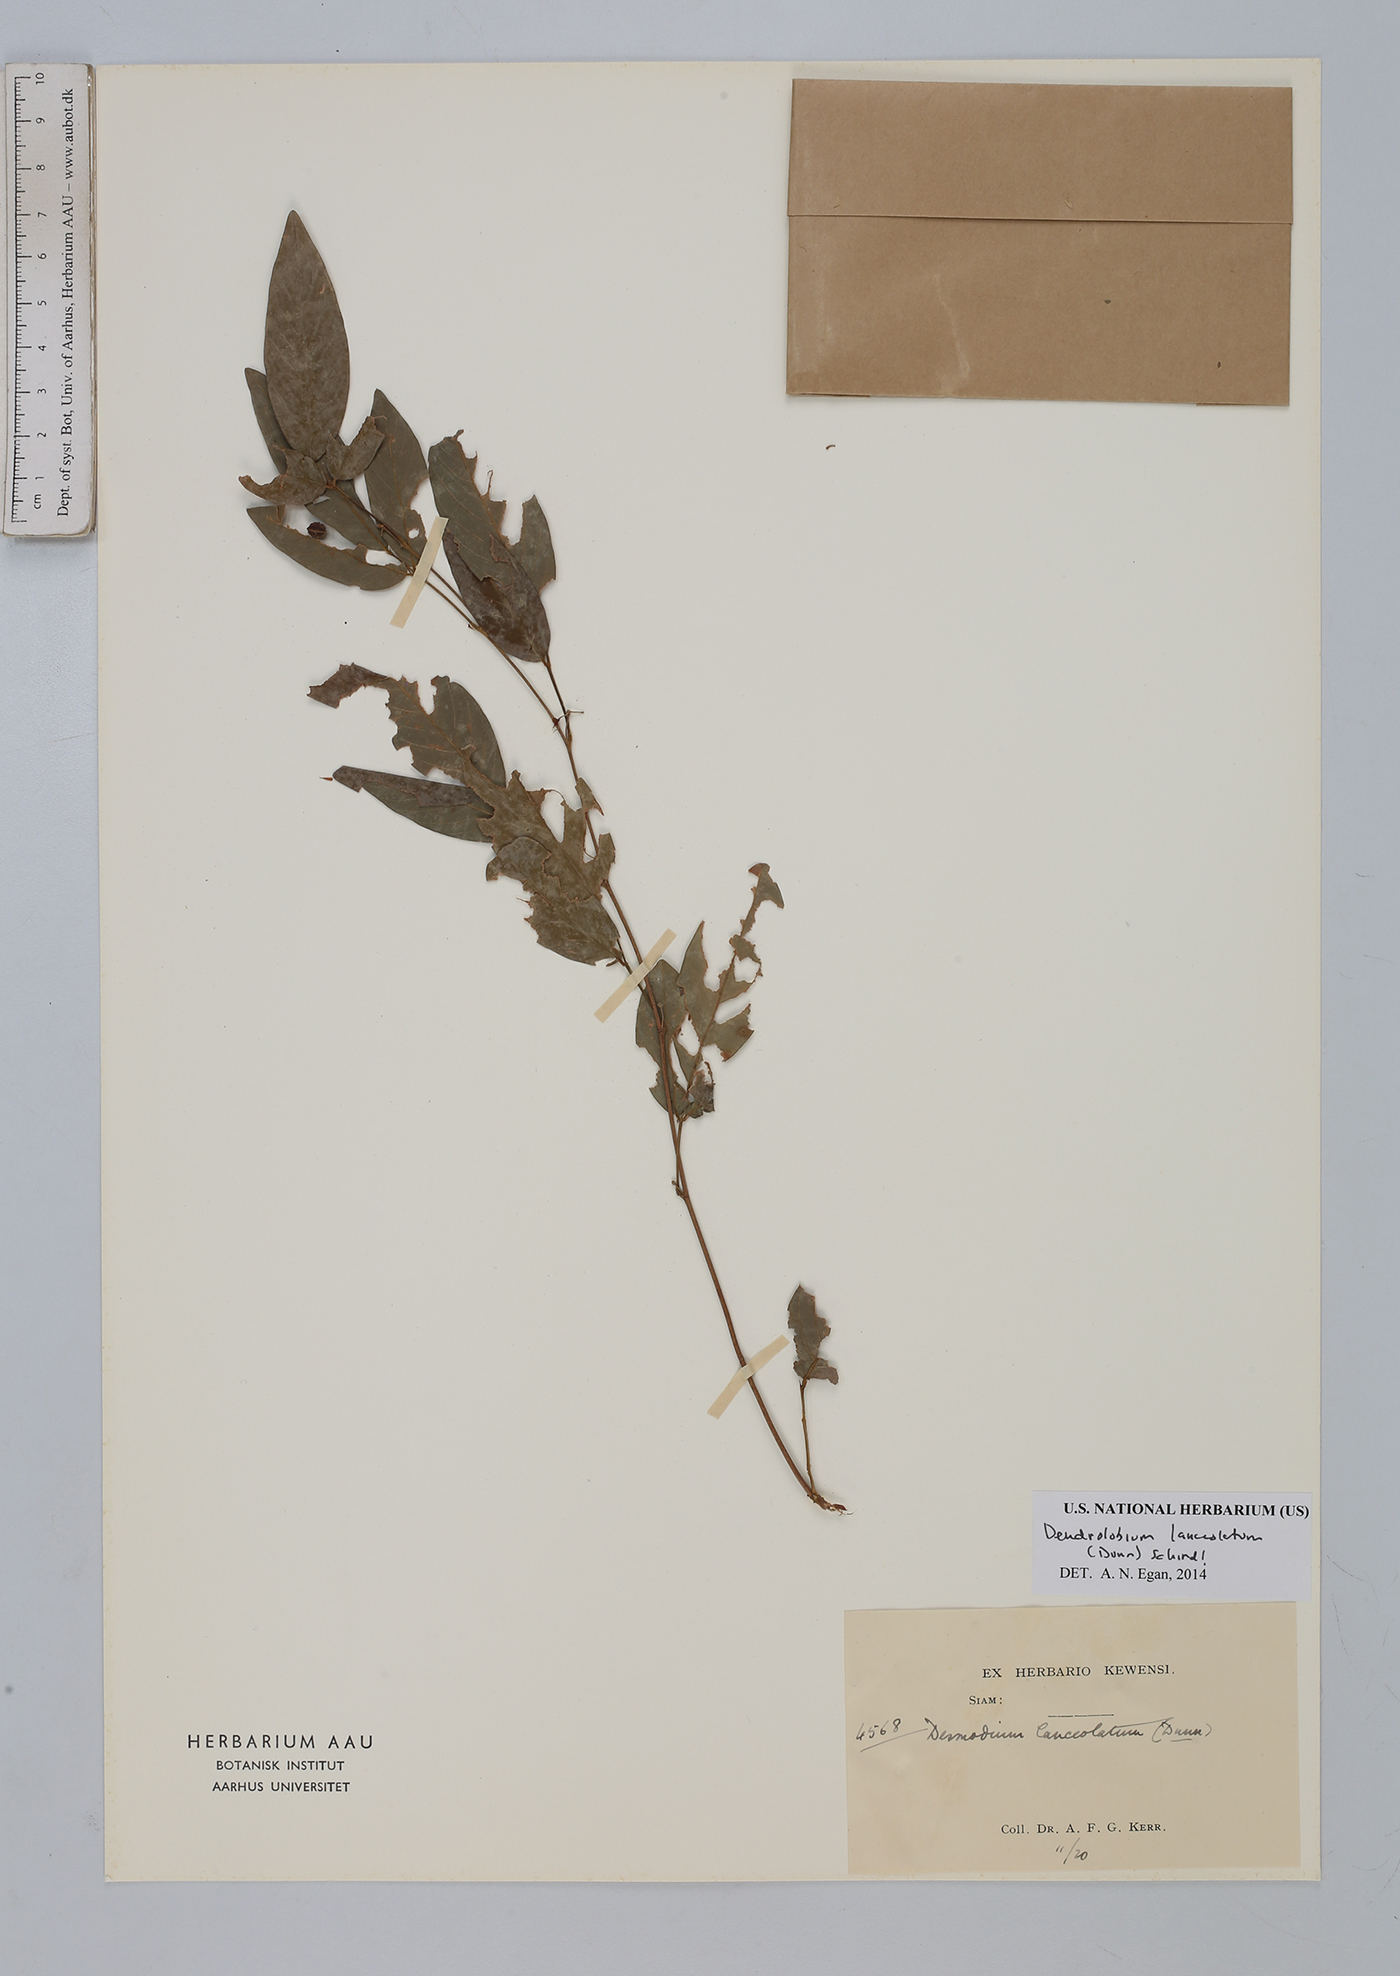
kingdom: Plantae
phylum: Tracheophyta
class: Magnoliopsida
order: Fabales
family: Fabaceae
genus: Dendrolobium
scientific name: Dendrolobium lanceolatum
